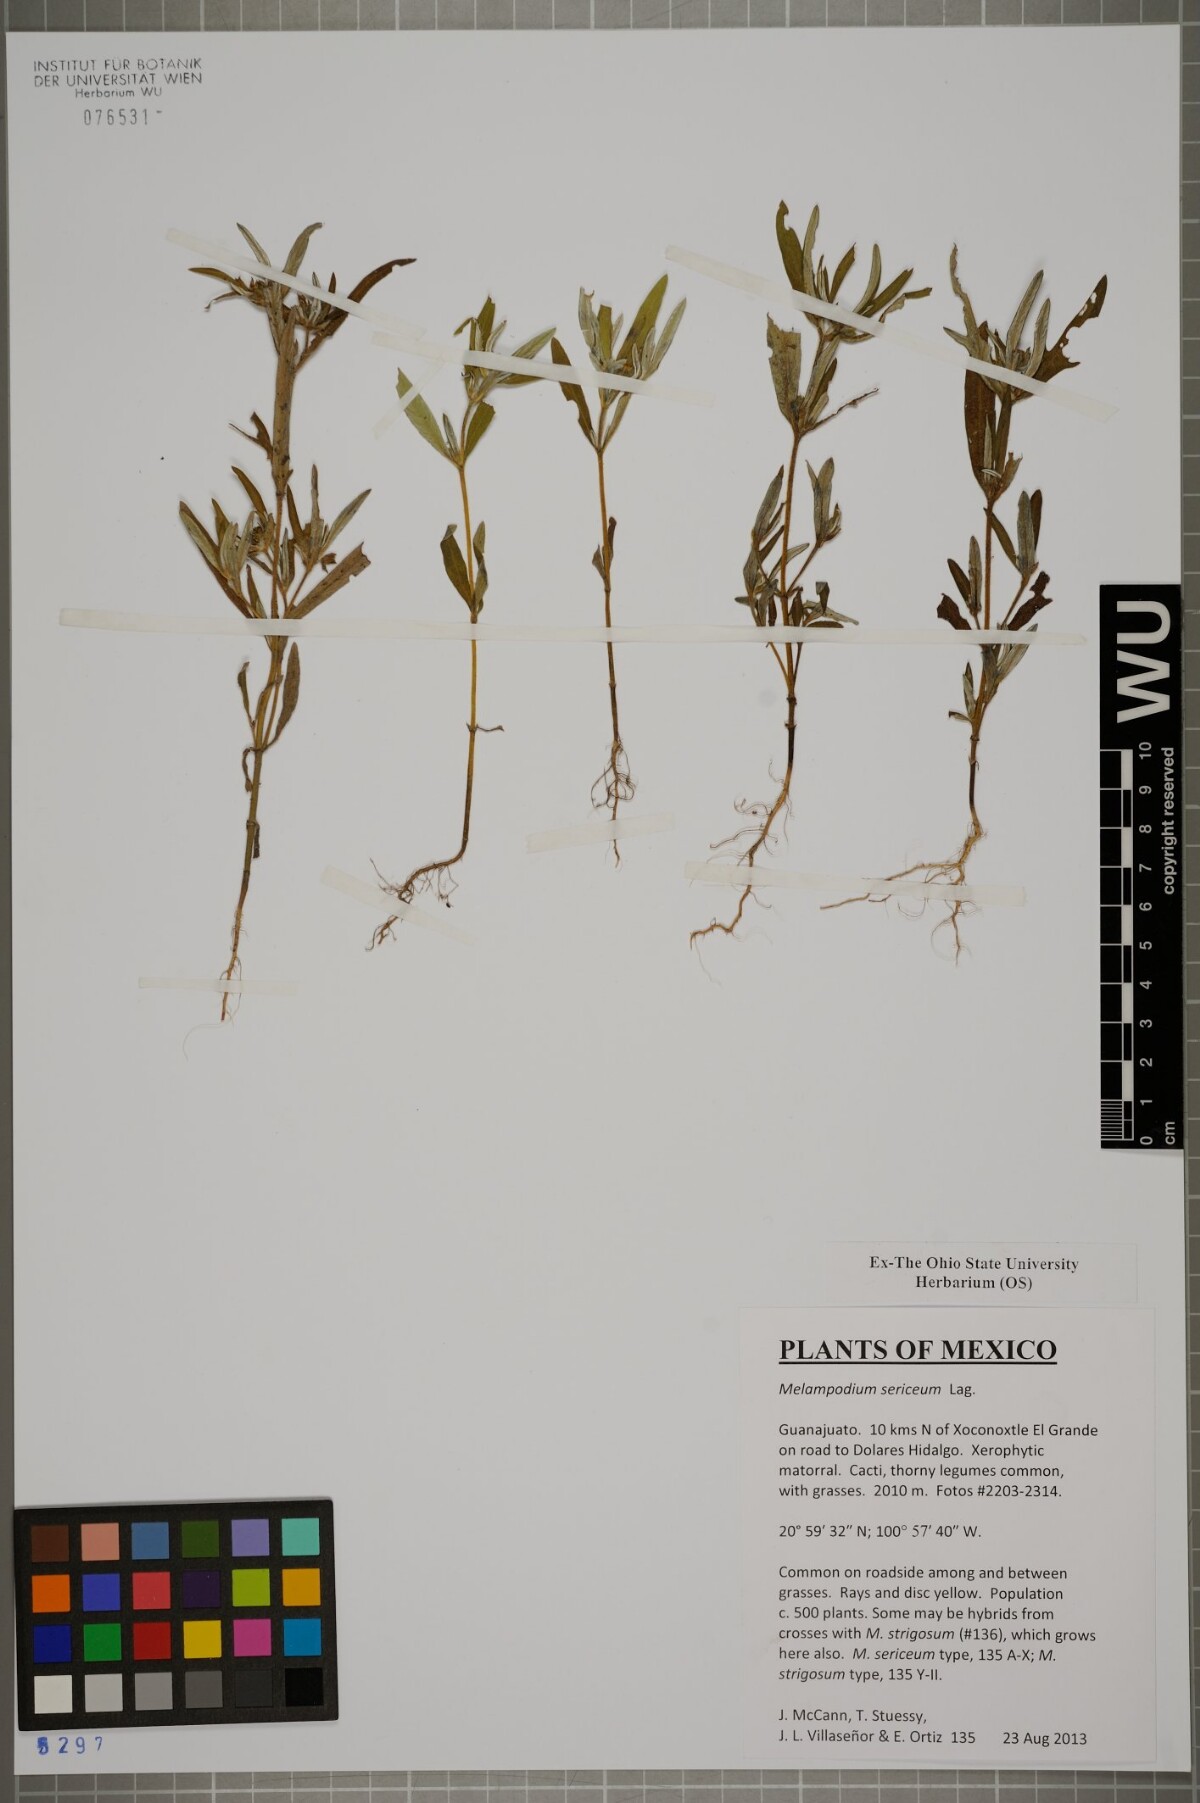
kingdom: Plantae
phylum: Tracheophyta
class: Magnoliopsida
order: Asterales
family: Asteraceae
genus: Melampodium
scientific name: Melampodium sericeum
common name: Rough blackfoot
